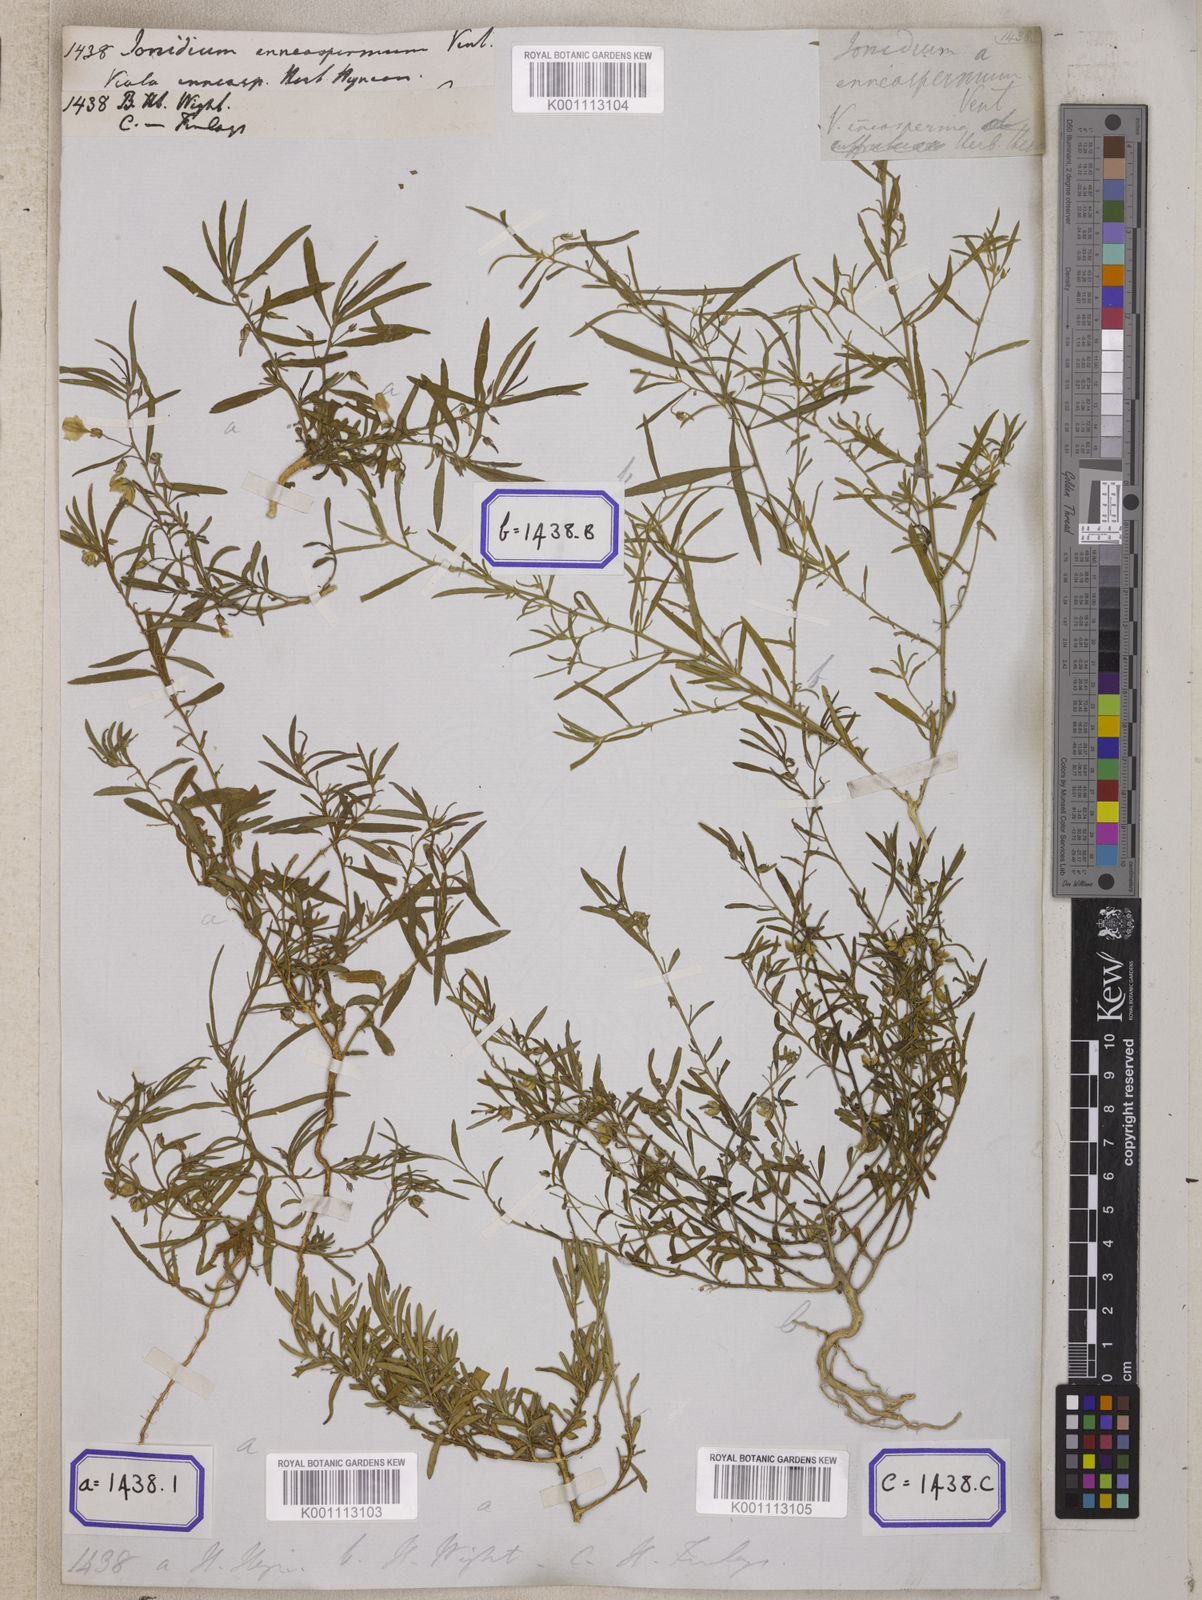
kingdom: Plantae
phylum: Tracheophyta
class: Magnoliopsida
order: Malpighiales
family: Violaceae
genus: Pigea
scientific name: Pigea enneasperma
